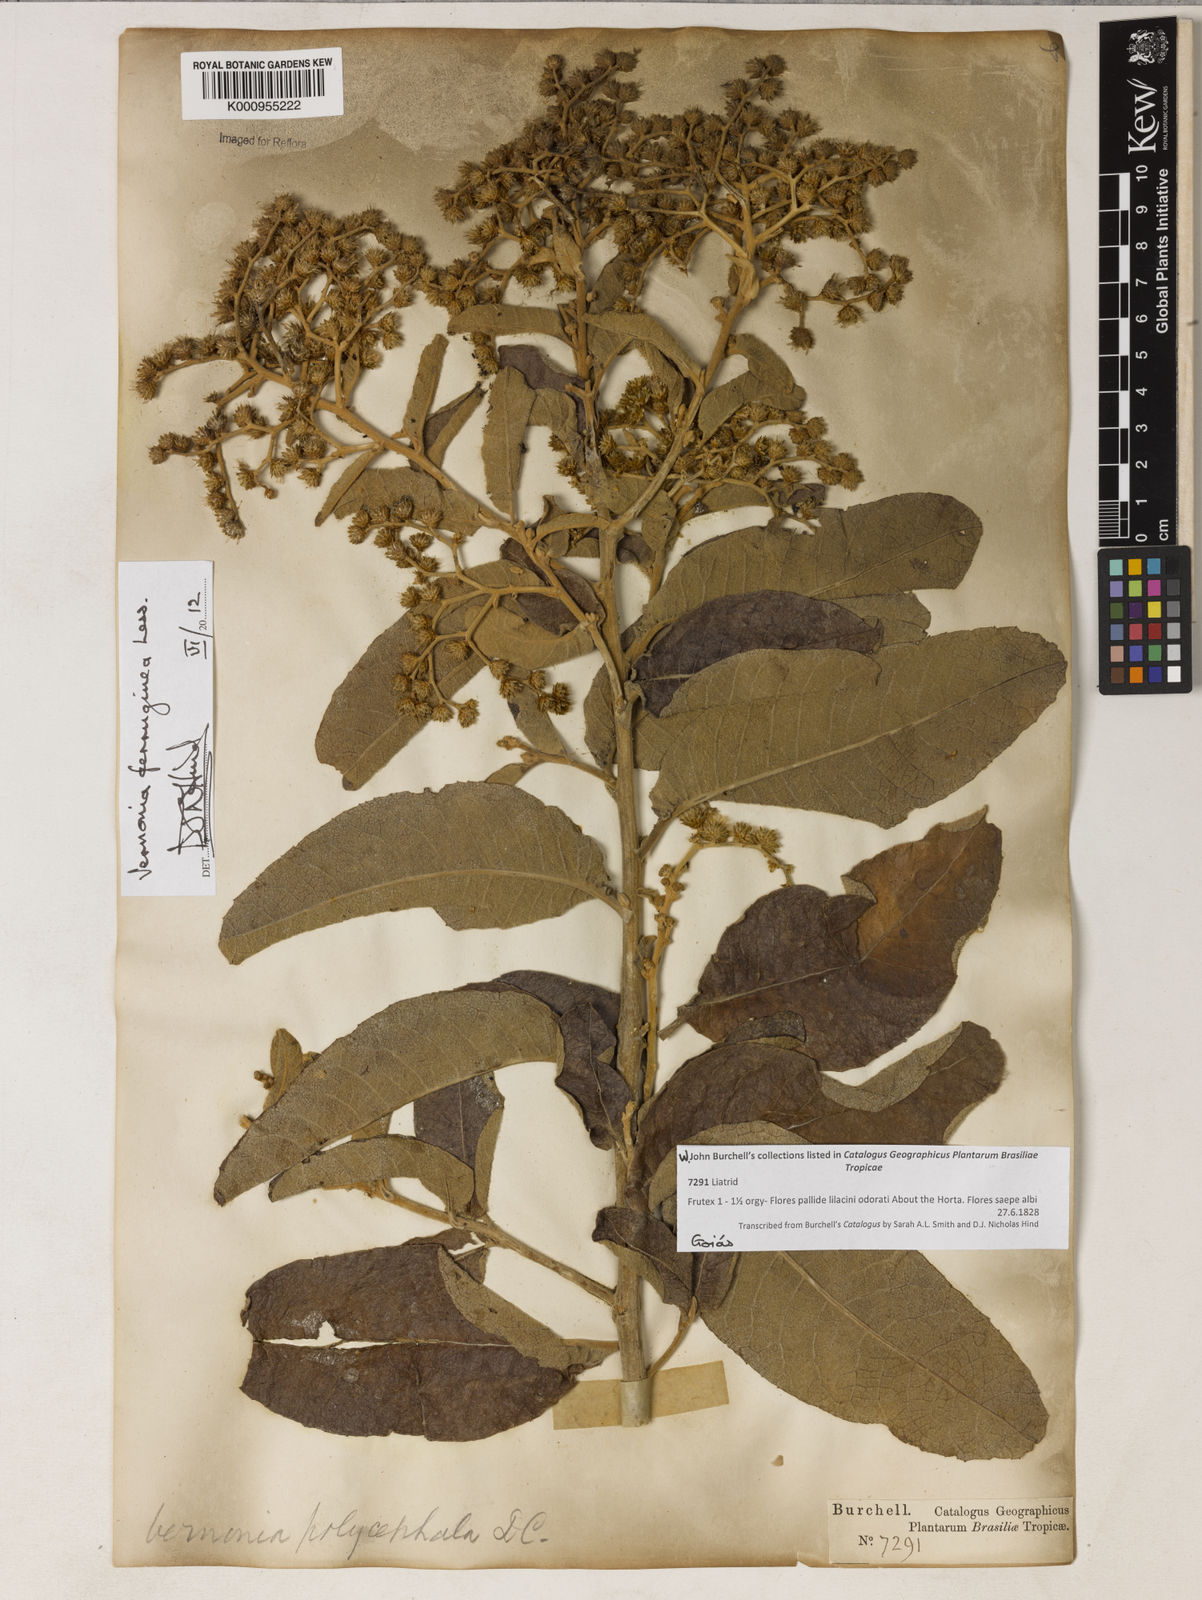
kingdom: Plantae
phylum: Tracheophyta
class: Magnoliopsida
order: Asterales
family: Asteraceae
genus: Vernonanthura
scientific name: Vernonanthura ferruginea
